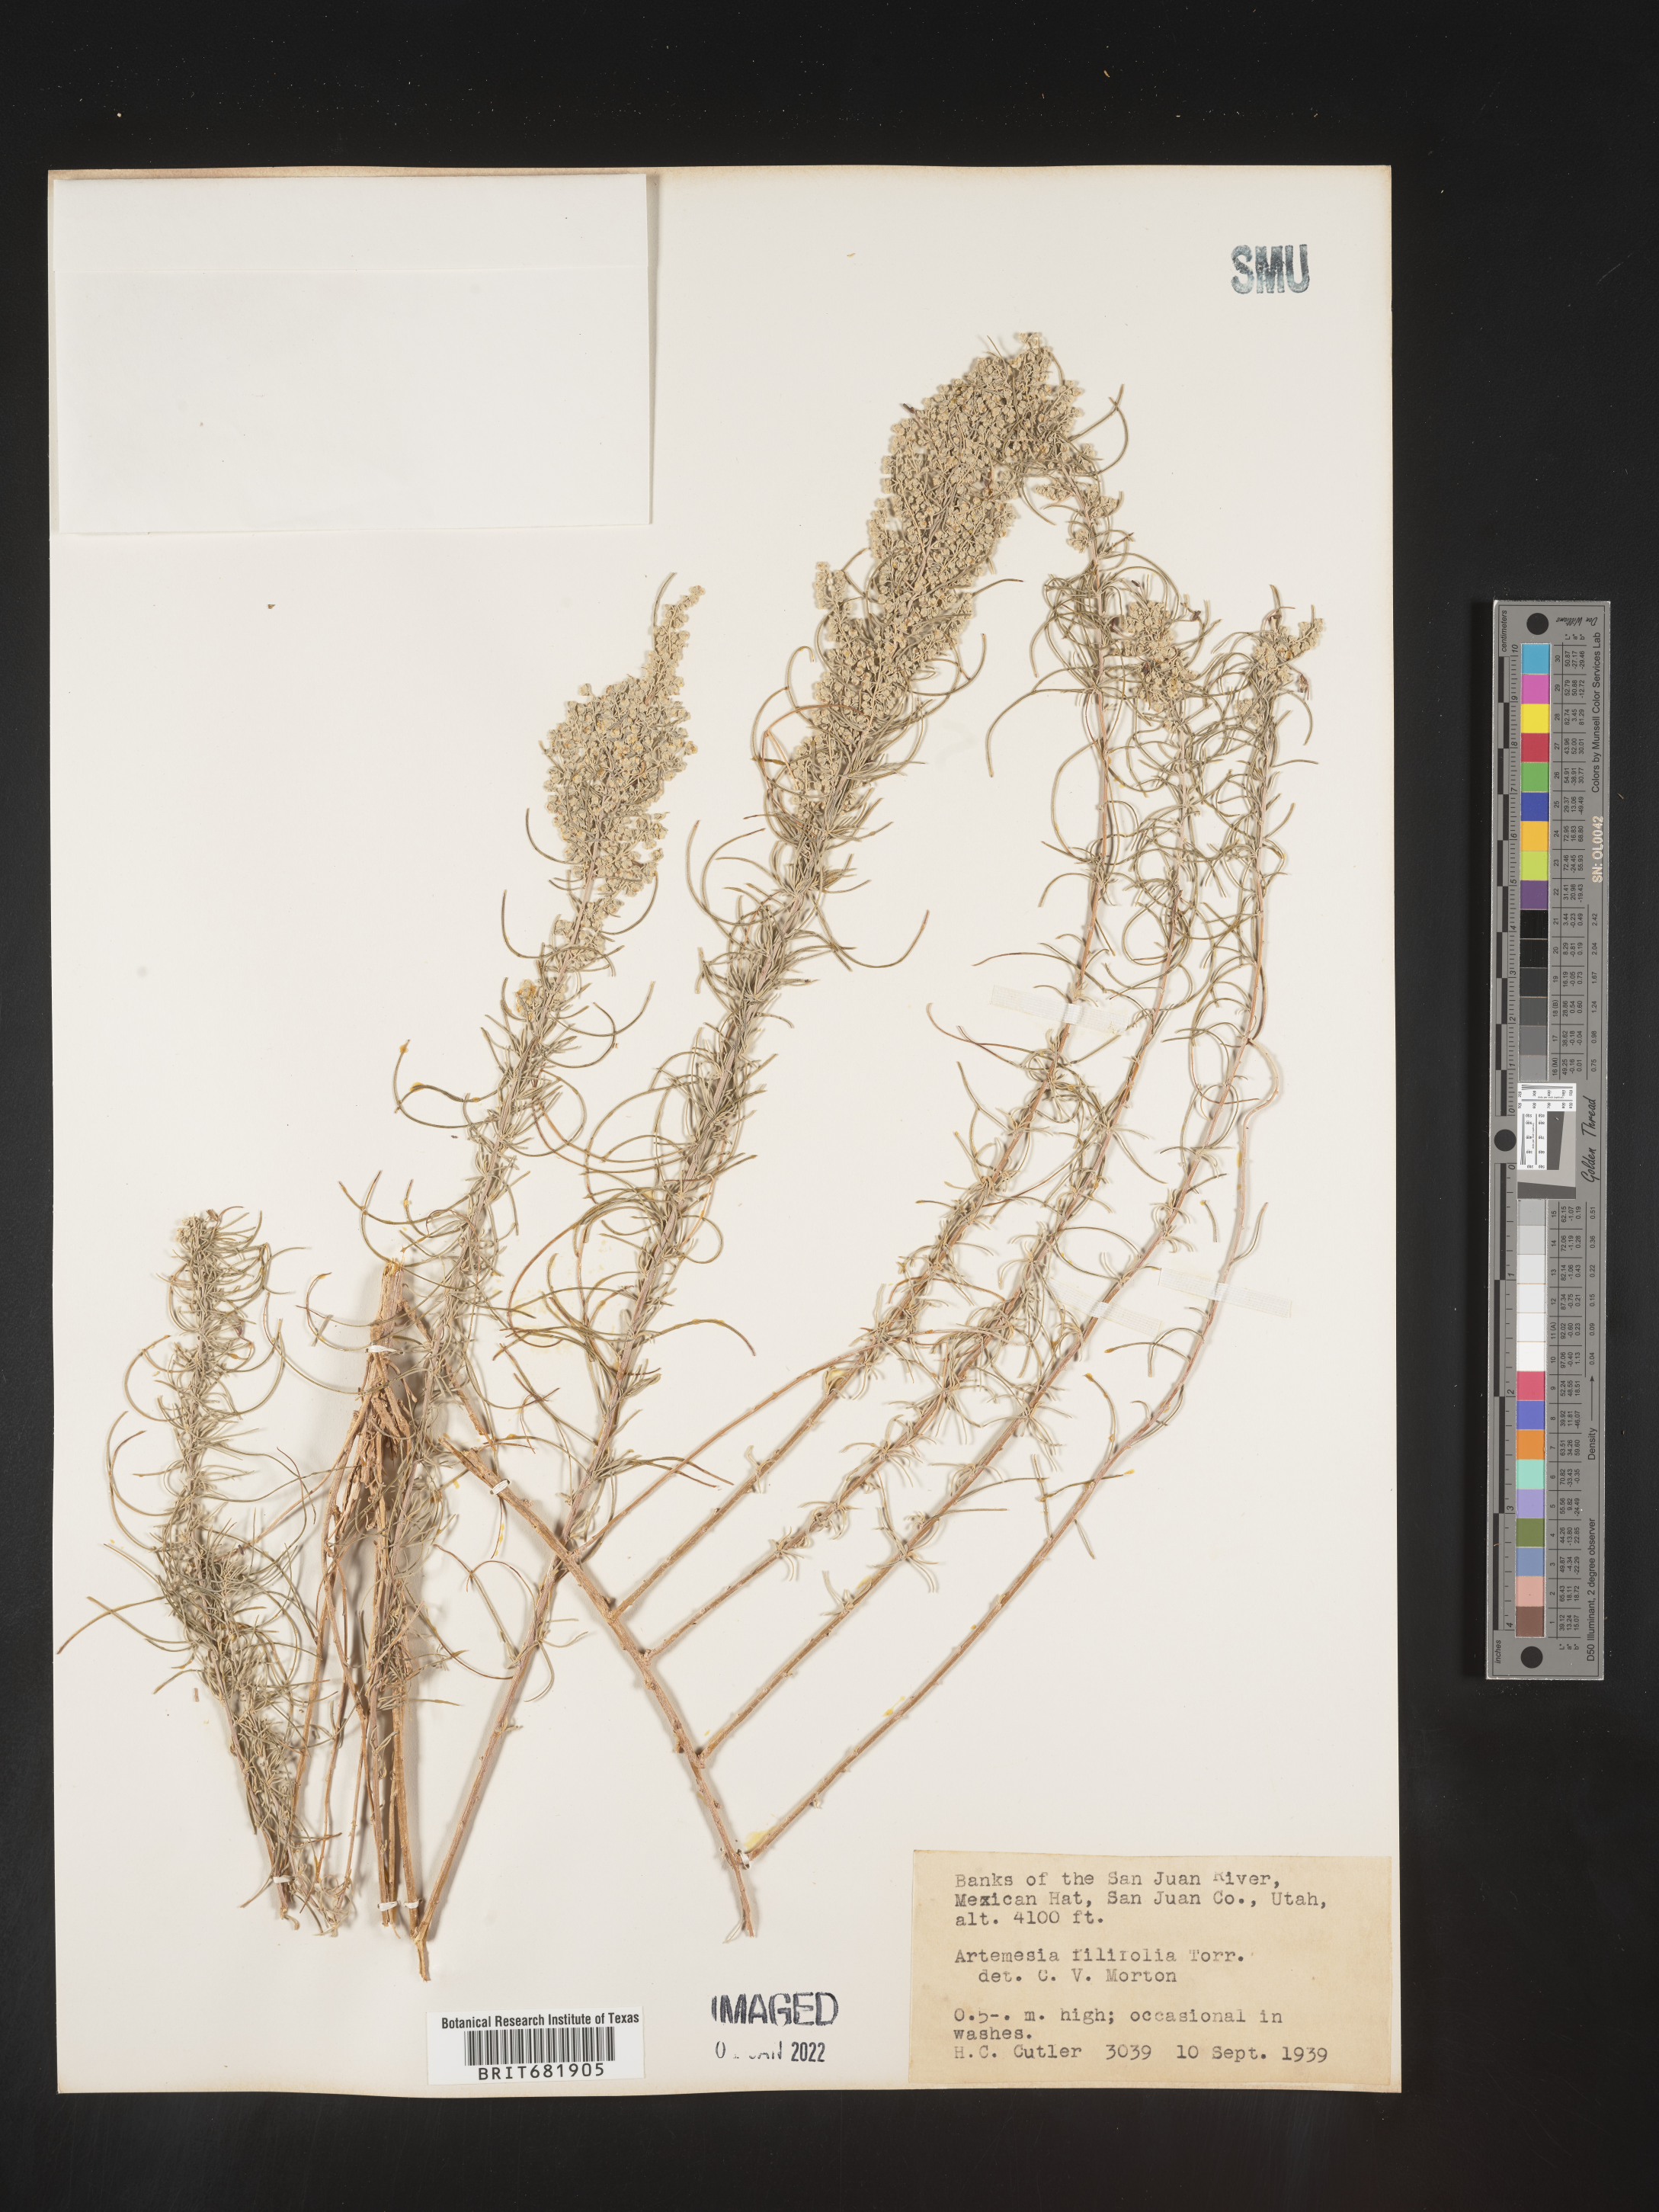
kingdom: Plantae
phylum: Tracheophyta
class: Magnoliopsida
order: Asterales
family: Asteraceae
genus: Artemisia
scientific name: Artemisia filifolia
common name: Sand-sage
